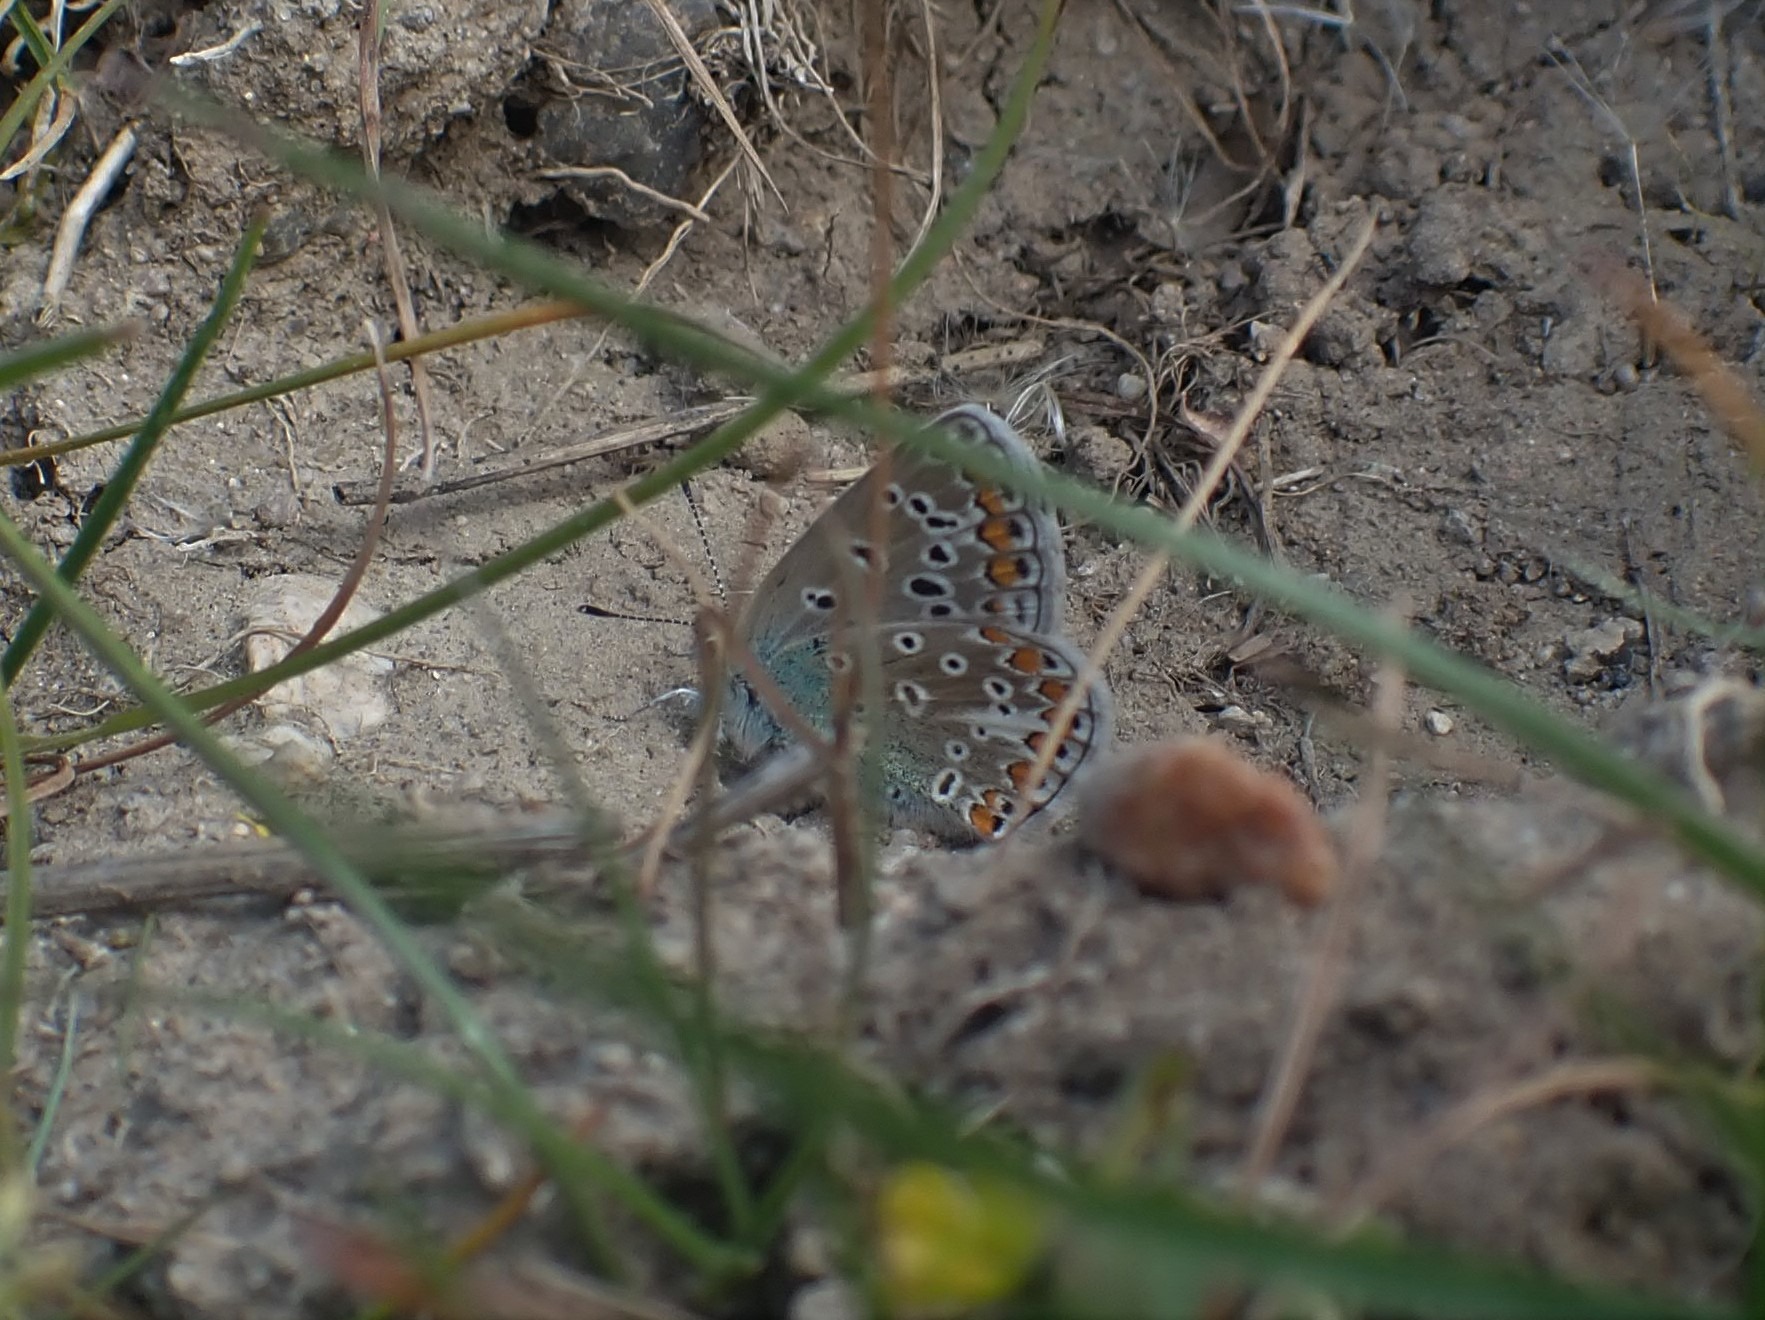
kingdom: Animalia
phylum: Arthropoda
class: Insecta
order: Lepidoptera
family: Lycaenidae
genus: Polyommatus
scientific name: Polyommatus icarus
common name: Almindelig blåfugl
